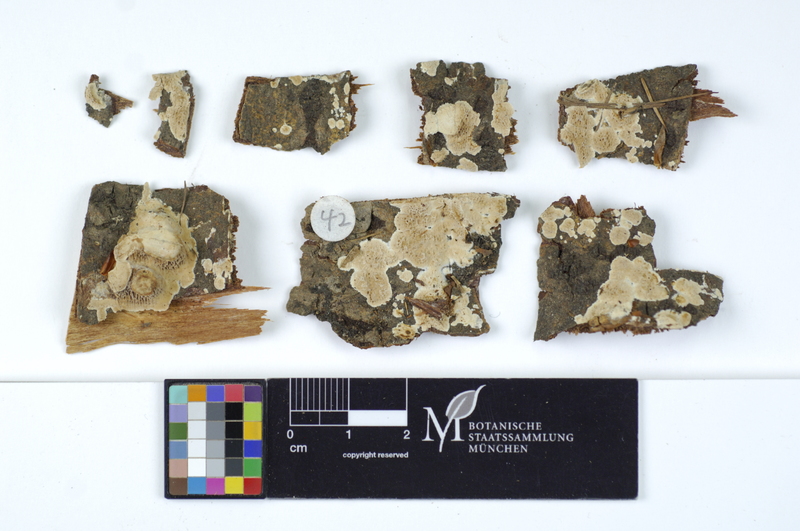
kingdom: Plantae
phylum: Tracheophyta
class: Magnoliopsida
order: Fagales
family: Fagaceae
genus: Quercus
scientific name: Quercus
